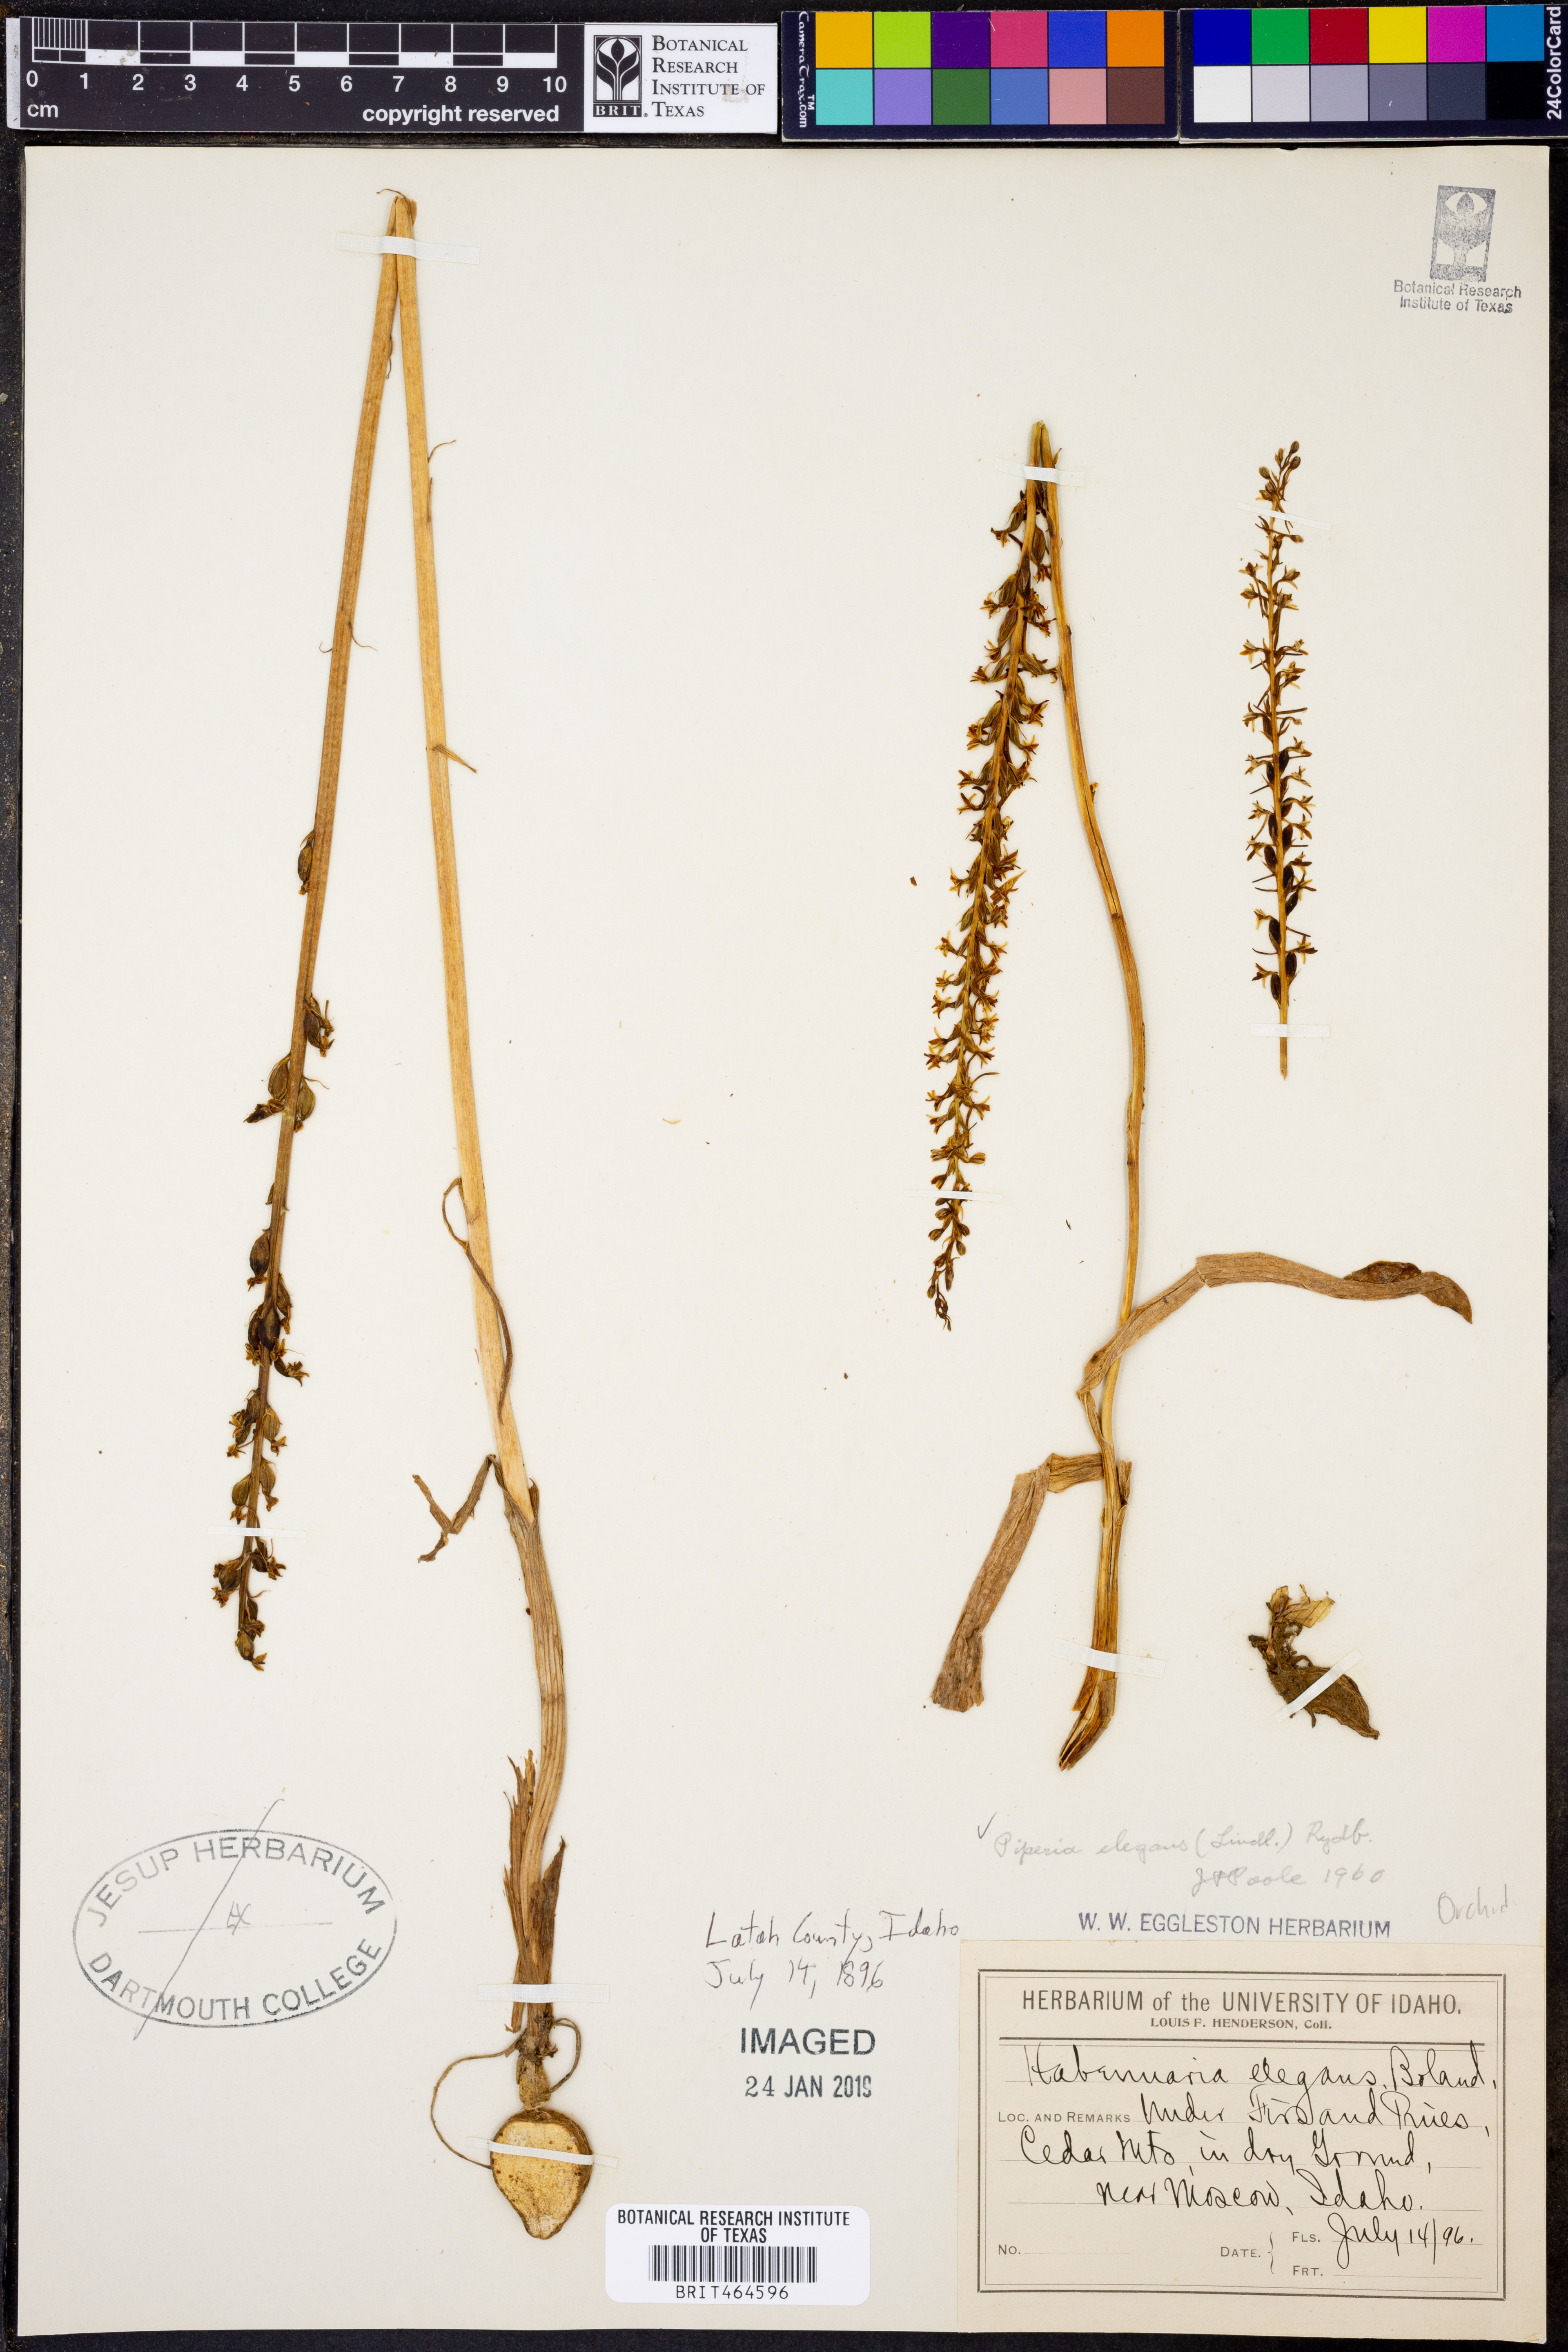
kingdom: Plantae
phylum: Tracheophyta
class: Liliopsida
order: Asparagales
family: Orchidaceae
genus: Platanthera
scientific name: Platanthera elegans
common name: Coast piperia
